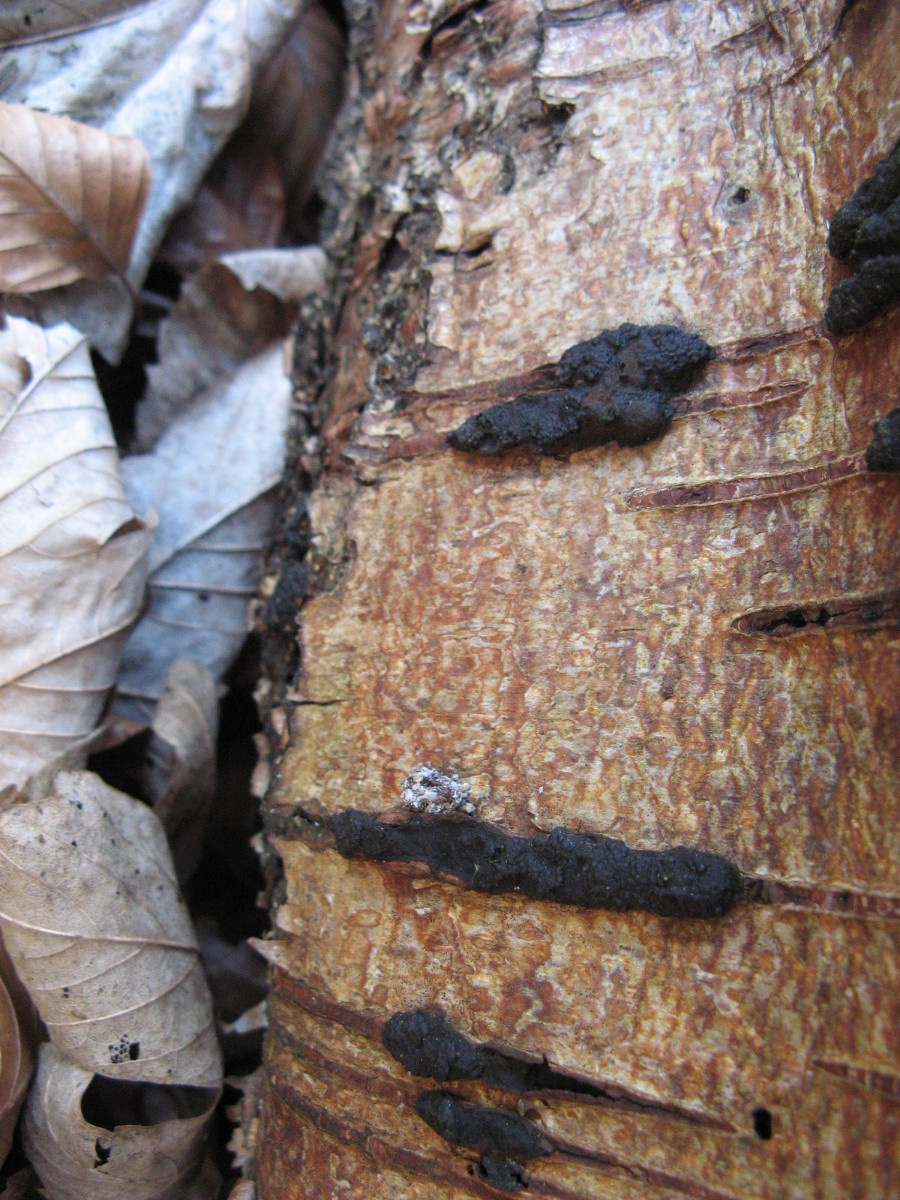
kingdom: Fungi
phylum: Ascomycota
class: Sordariomycetes
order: Xylariales
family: Hypoxylaceae
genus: Jackrogersella
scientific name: Jackrogersella multiformis
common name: foranderlig kulbær
